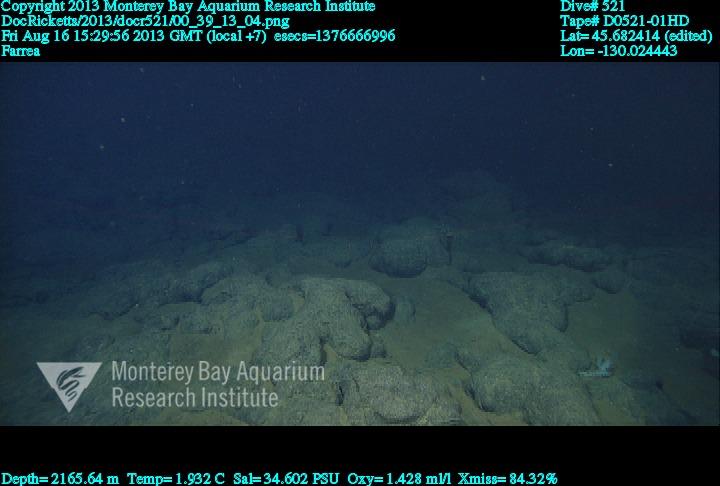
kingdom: Animalia
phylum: Porifera
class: Hexactinellida
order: Sceptrulophora
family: Farreidae
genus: Farrea
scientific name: Farrea
